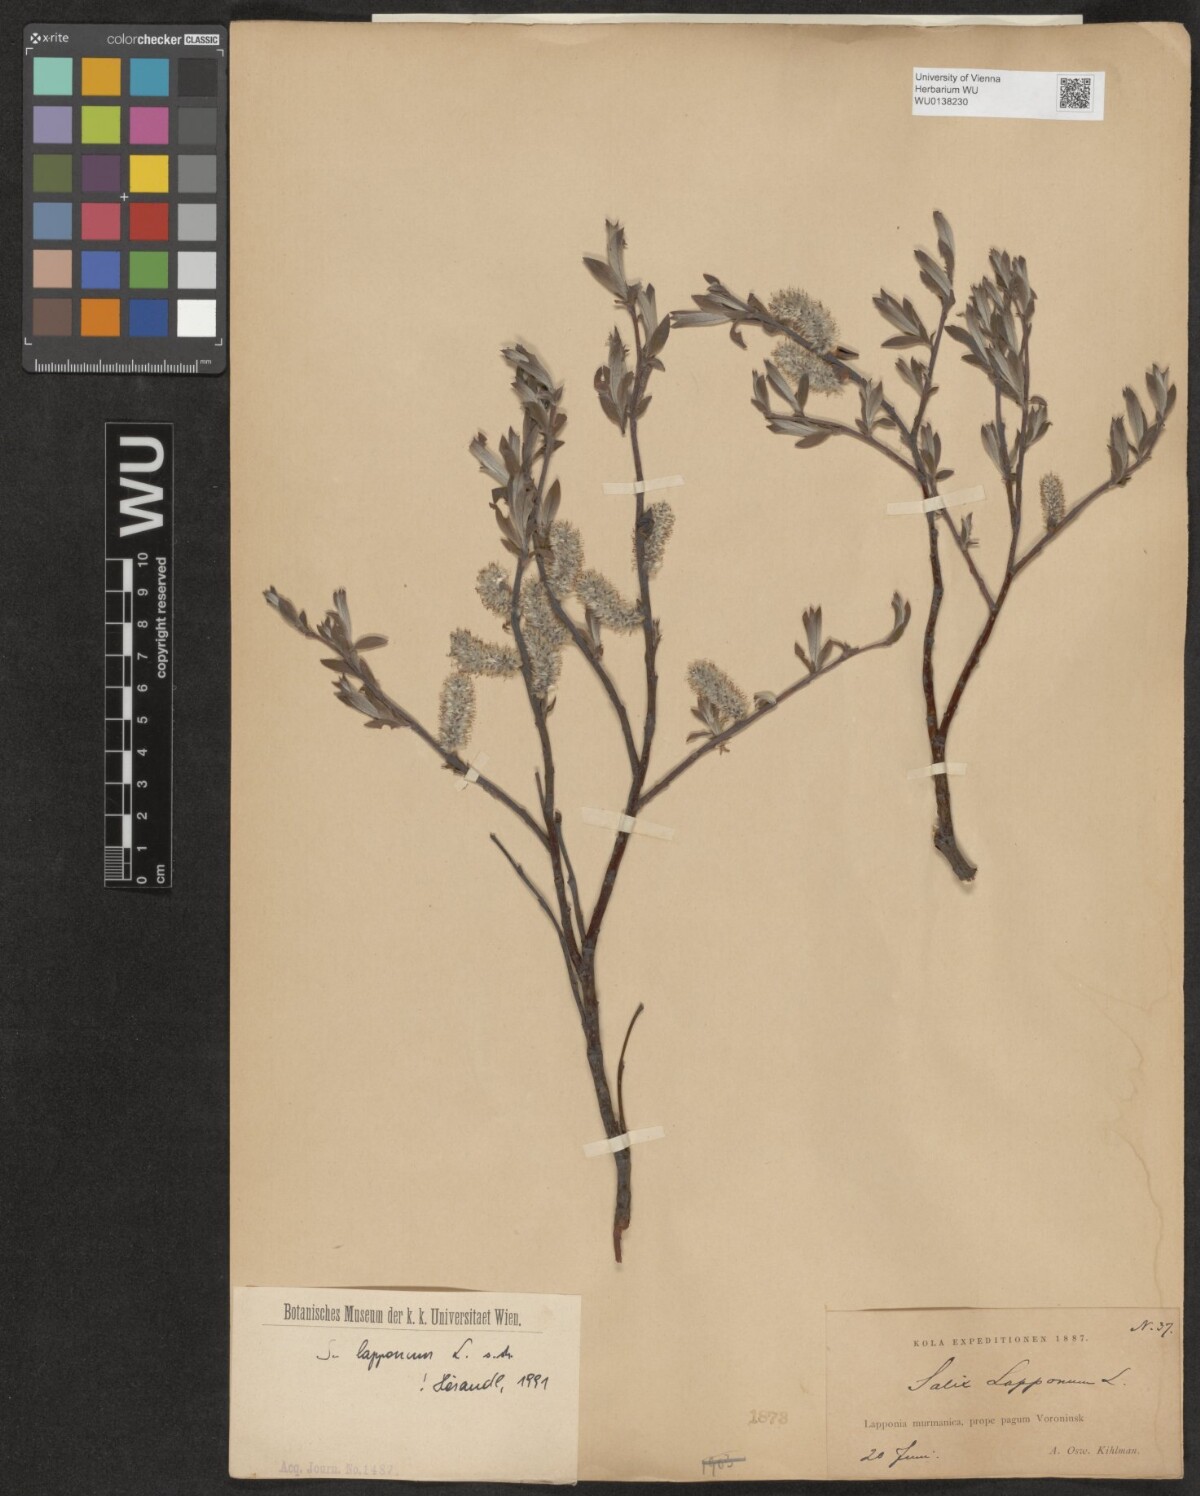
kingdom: Plantae
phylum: Tracheophyta
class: Magnoliopsida
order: Malpighiales
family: Salicaceae
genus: Salix
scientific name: Salix lapponum
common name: Downy willow
